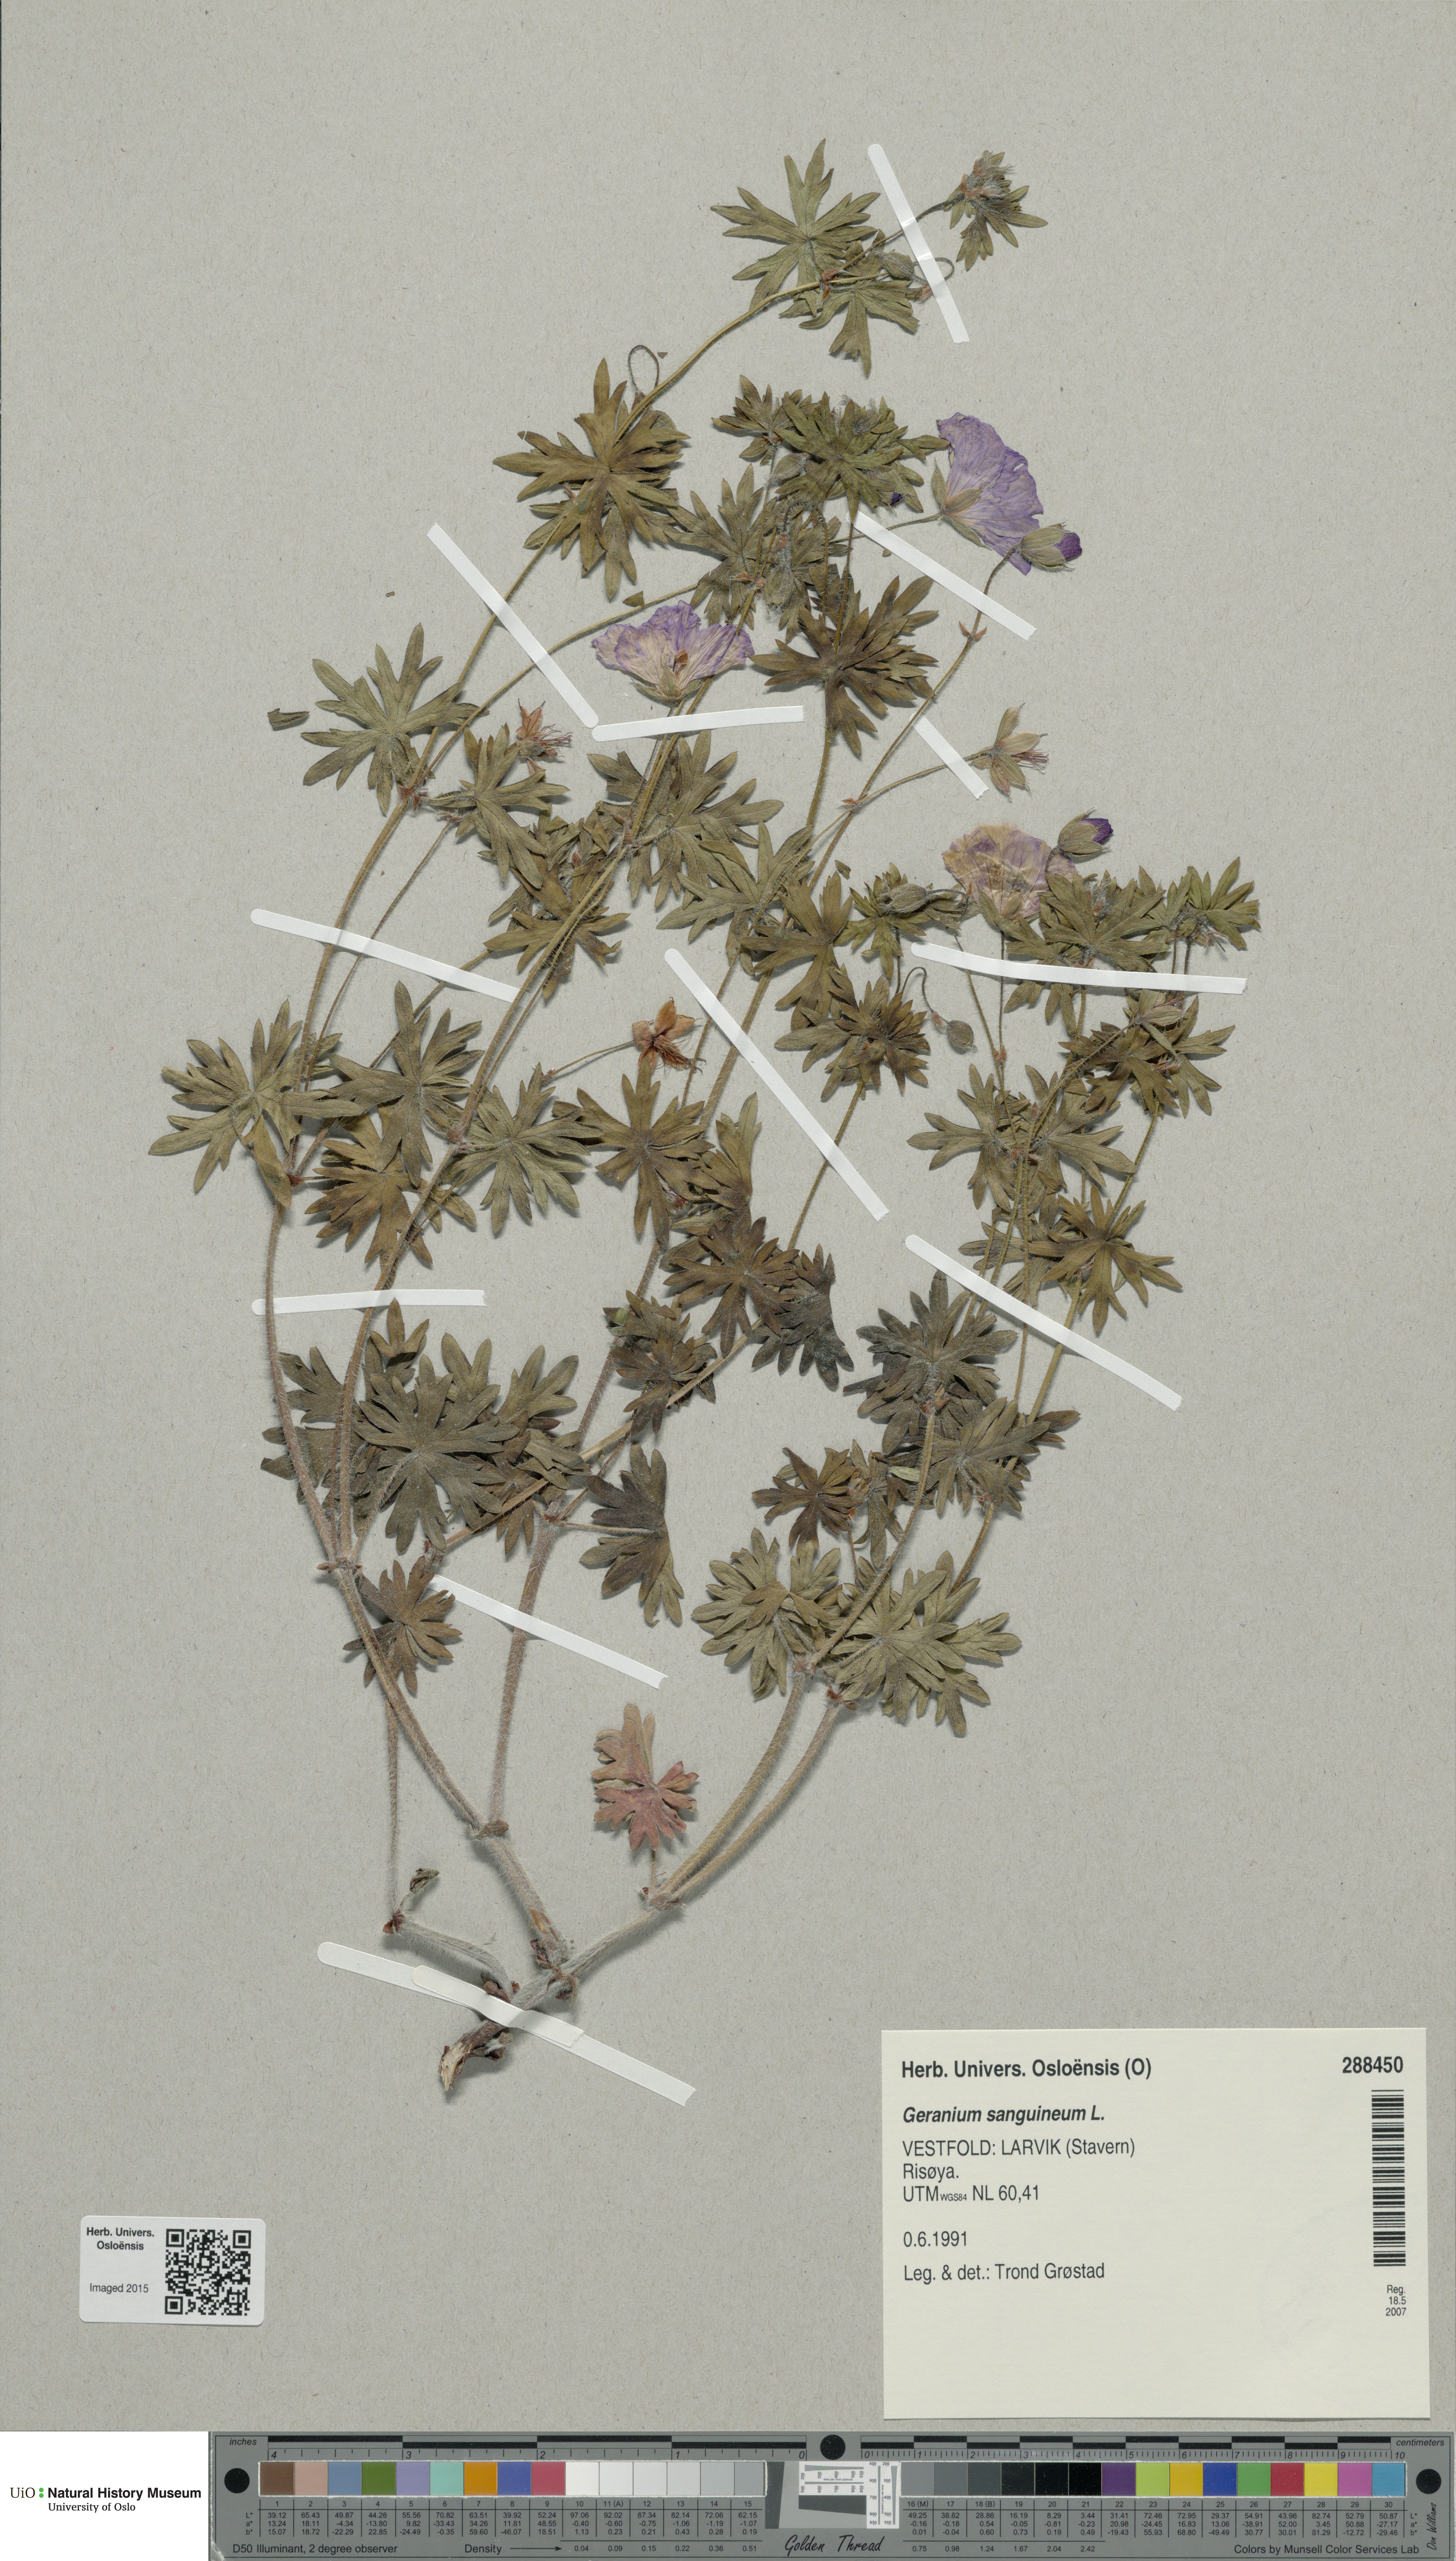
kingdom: Plantae
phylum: Tracheophyta
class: Magnoliopsida
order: Geraniales
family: Geraniaceae
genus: Geranium
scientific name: Geranium sanguineum
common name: Bloody crane's-bill
